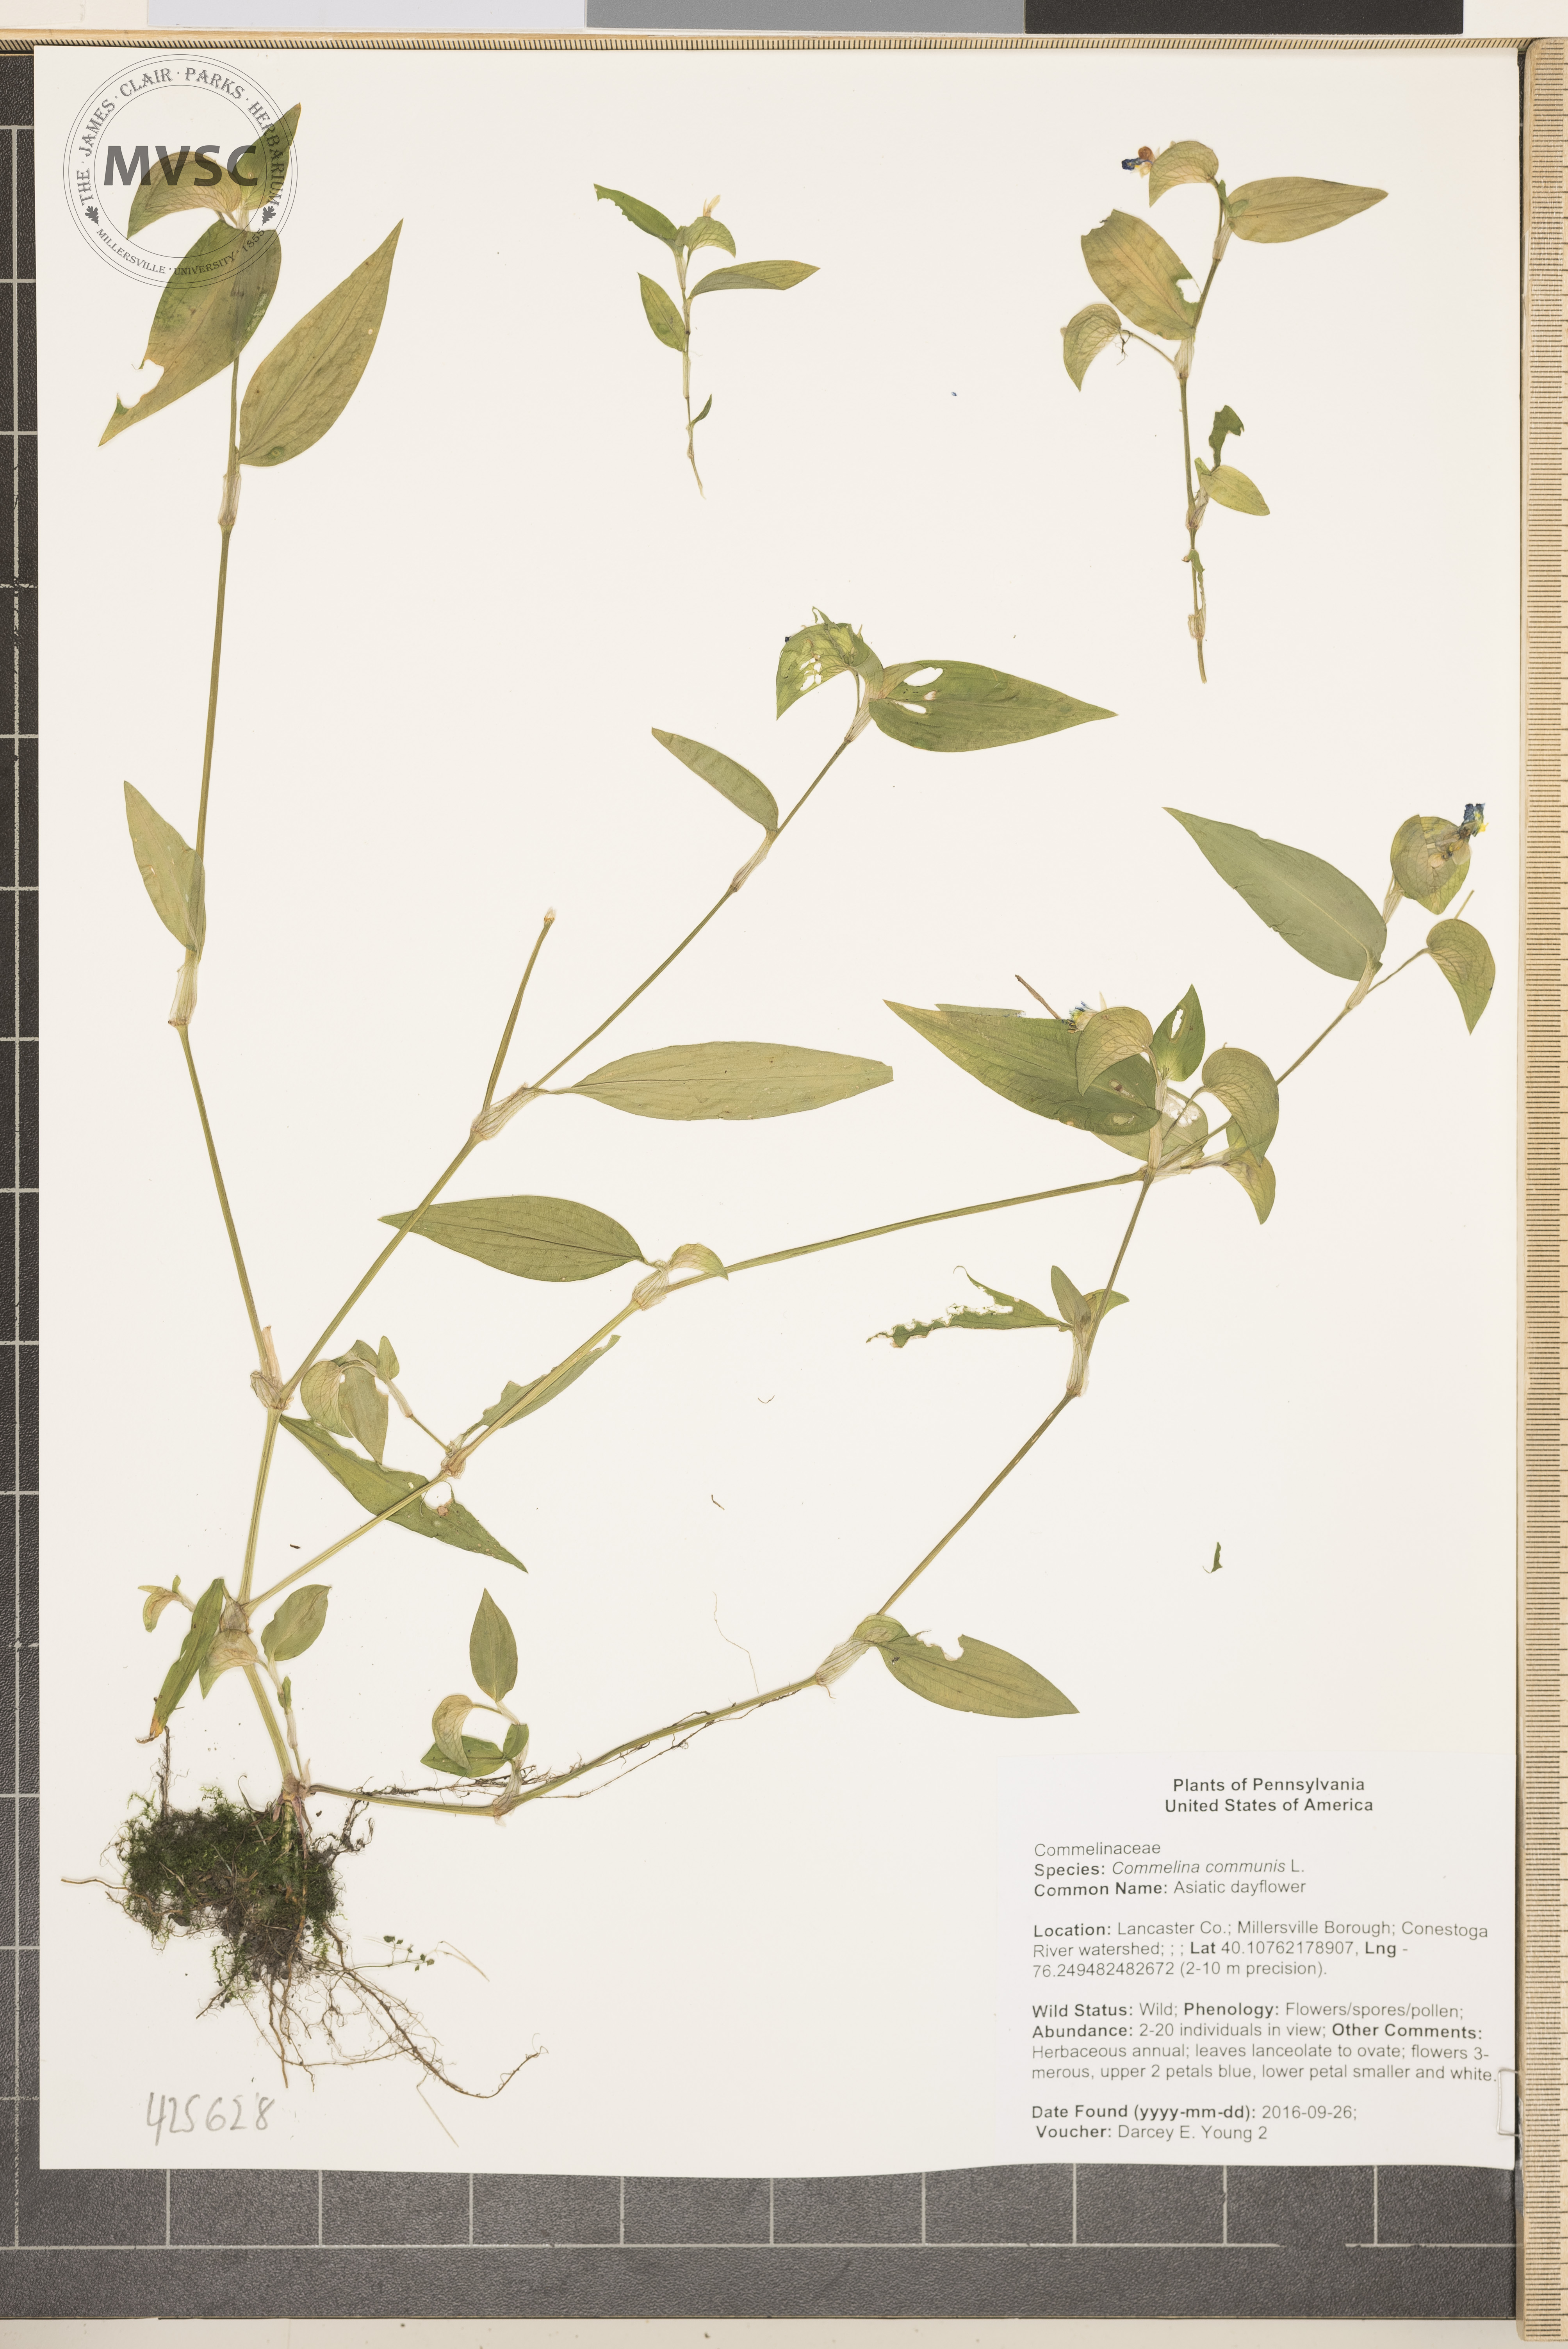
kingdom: Plantae
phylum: Tracheophyta
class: Liliopsida
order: Commelinales
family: Commelinaceae
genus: Commelina
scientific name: Commelina communis
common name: Asiatic dayflower
